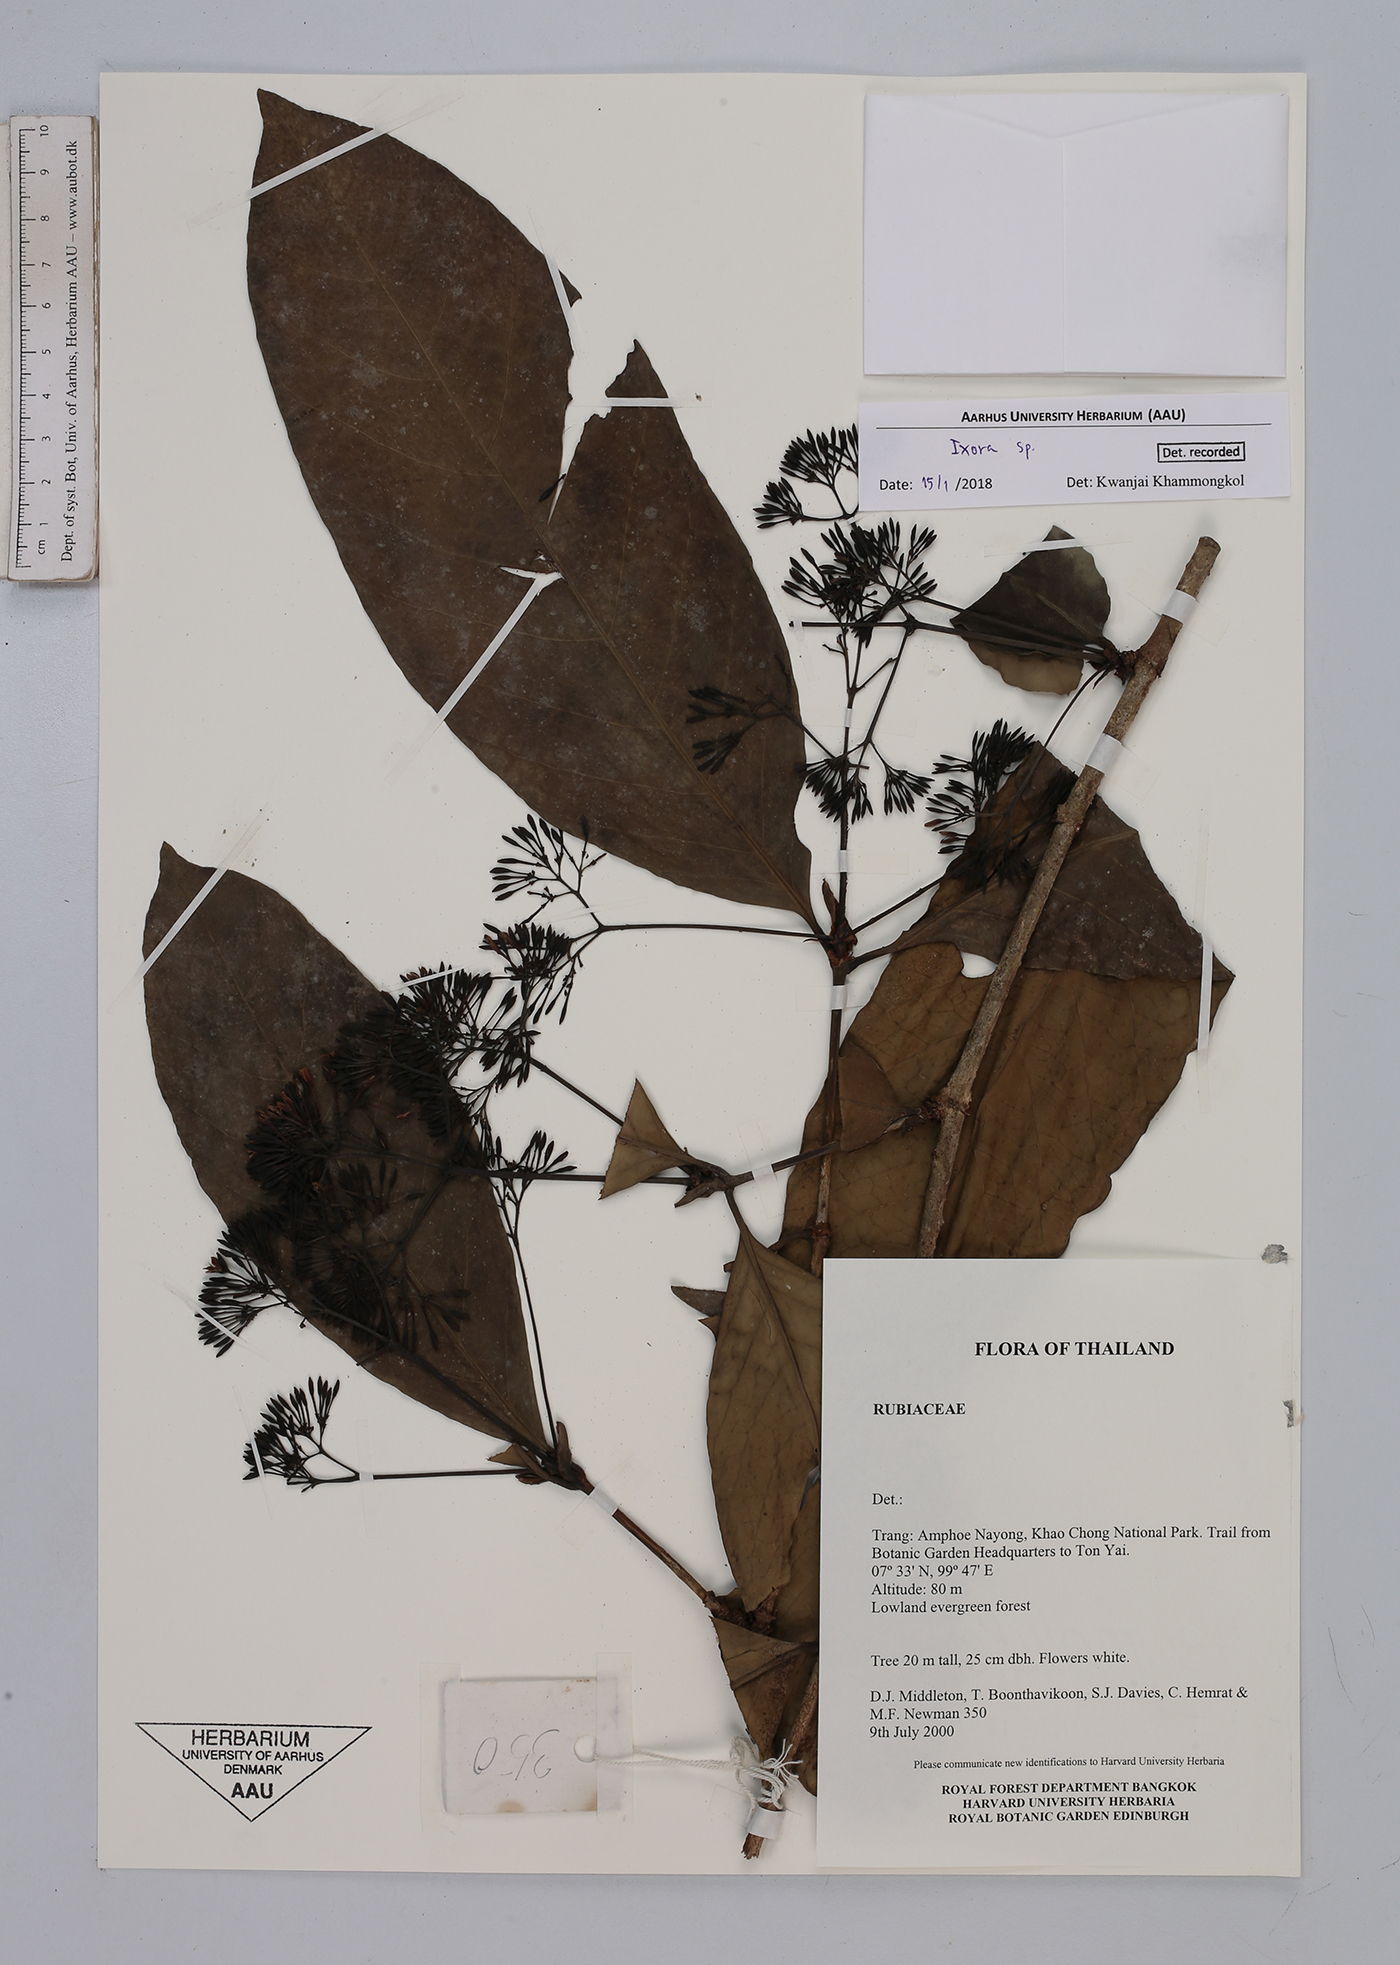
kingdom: Plantae
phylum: Tracheophyta
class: Magnoliopsida
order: Gentianales
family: Rubiaceae
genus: Ixora
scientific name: Ixora
